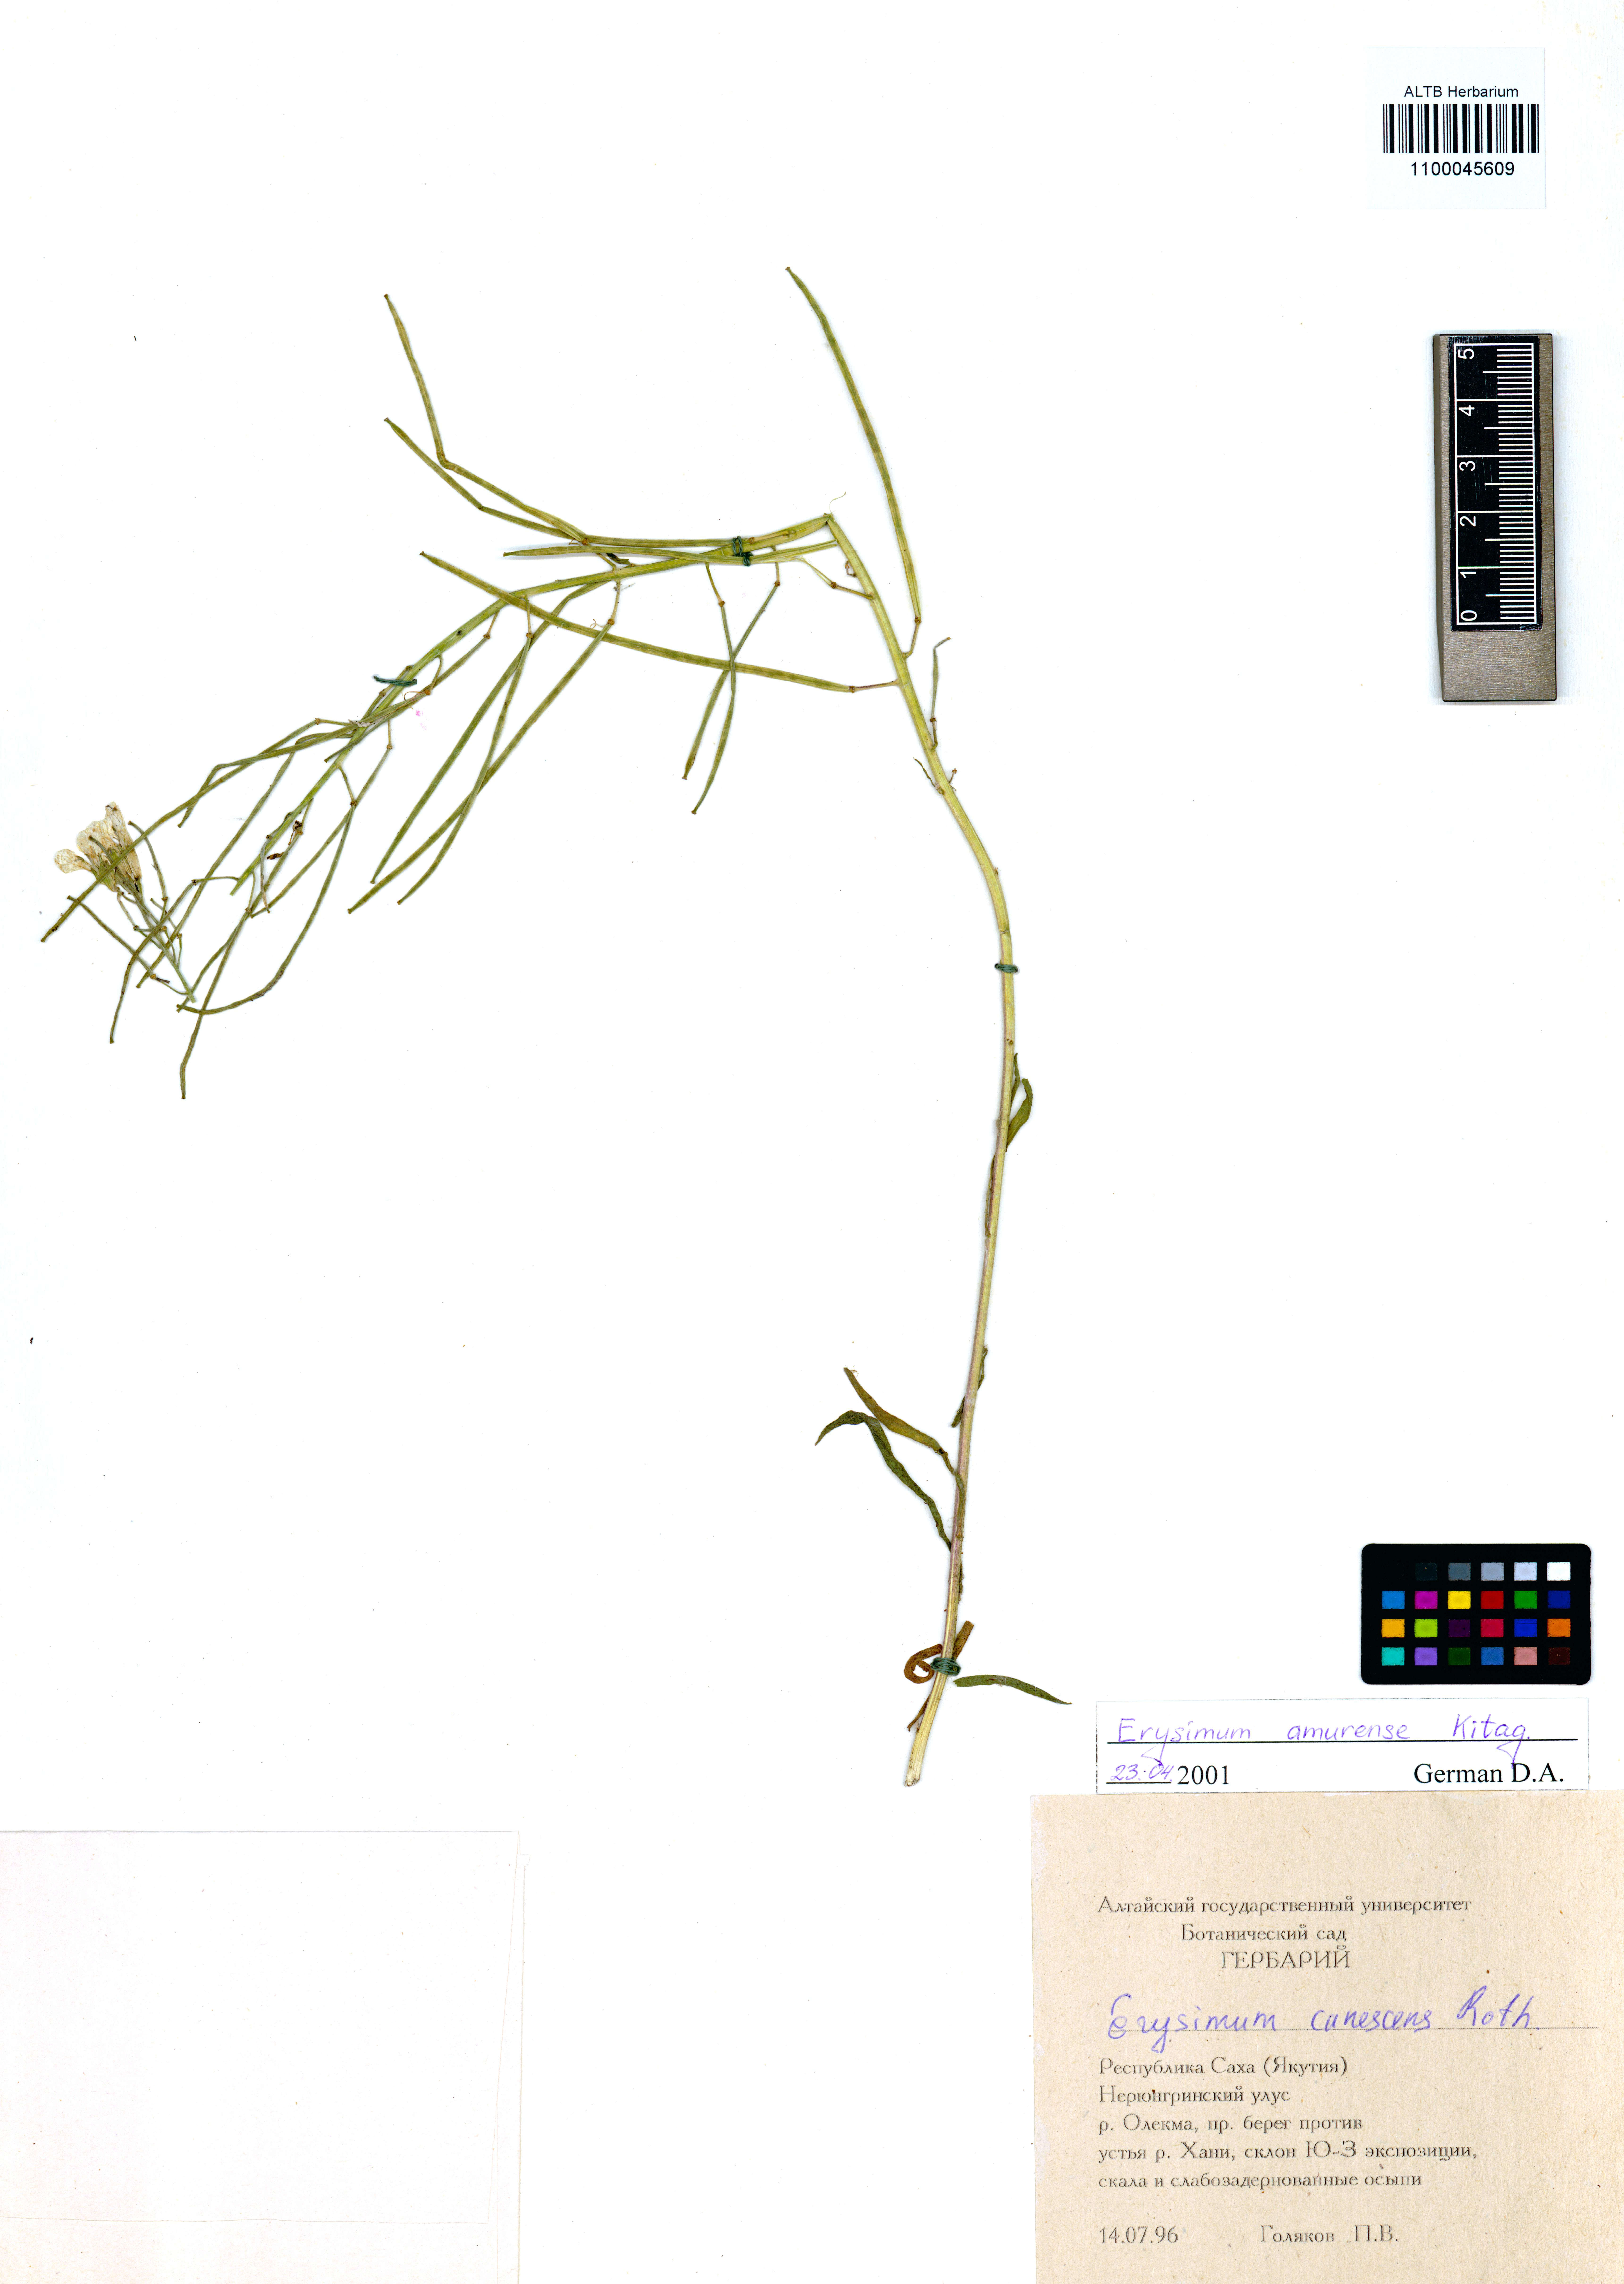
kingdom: Plantae
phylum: Tracheophyta
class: Magnoliopsida
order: Brassicales
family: Brassicaceae
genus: Erysimum
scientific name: Erysimum amurense
